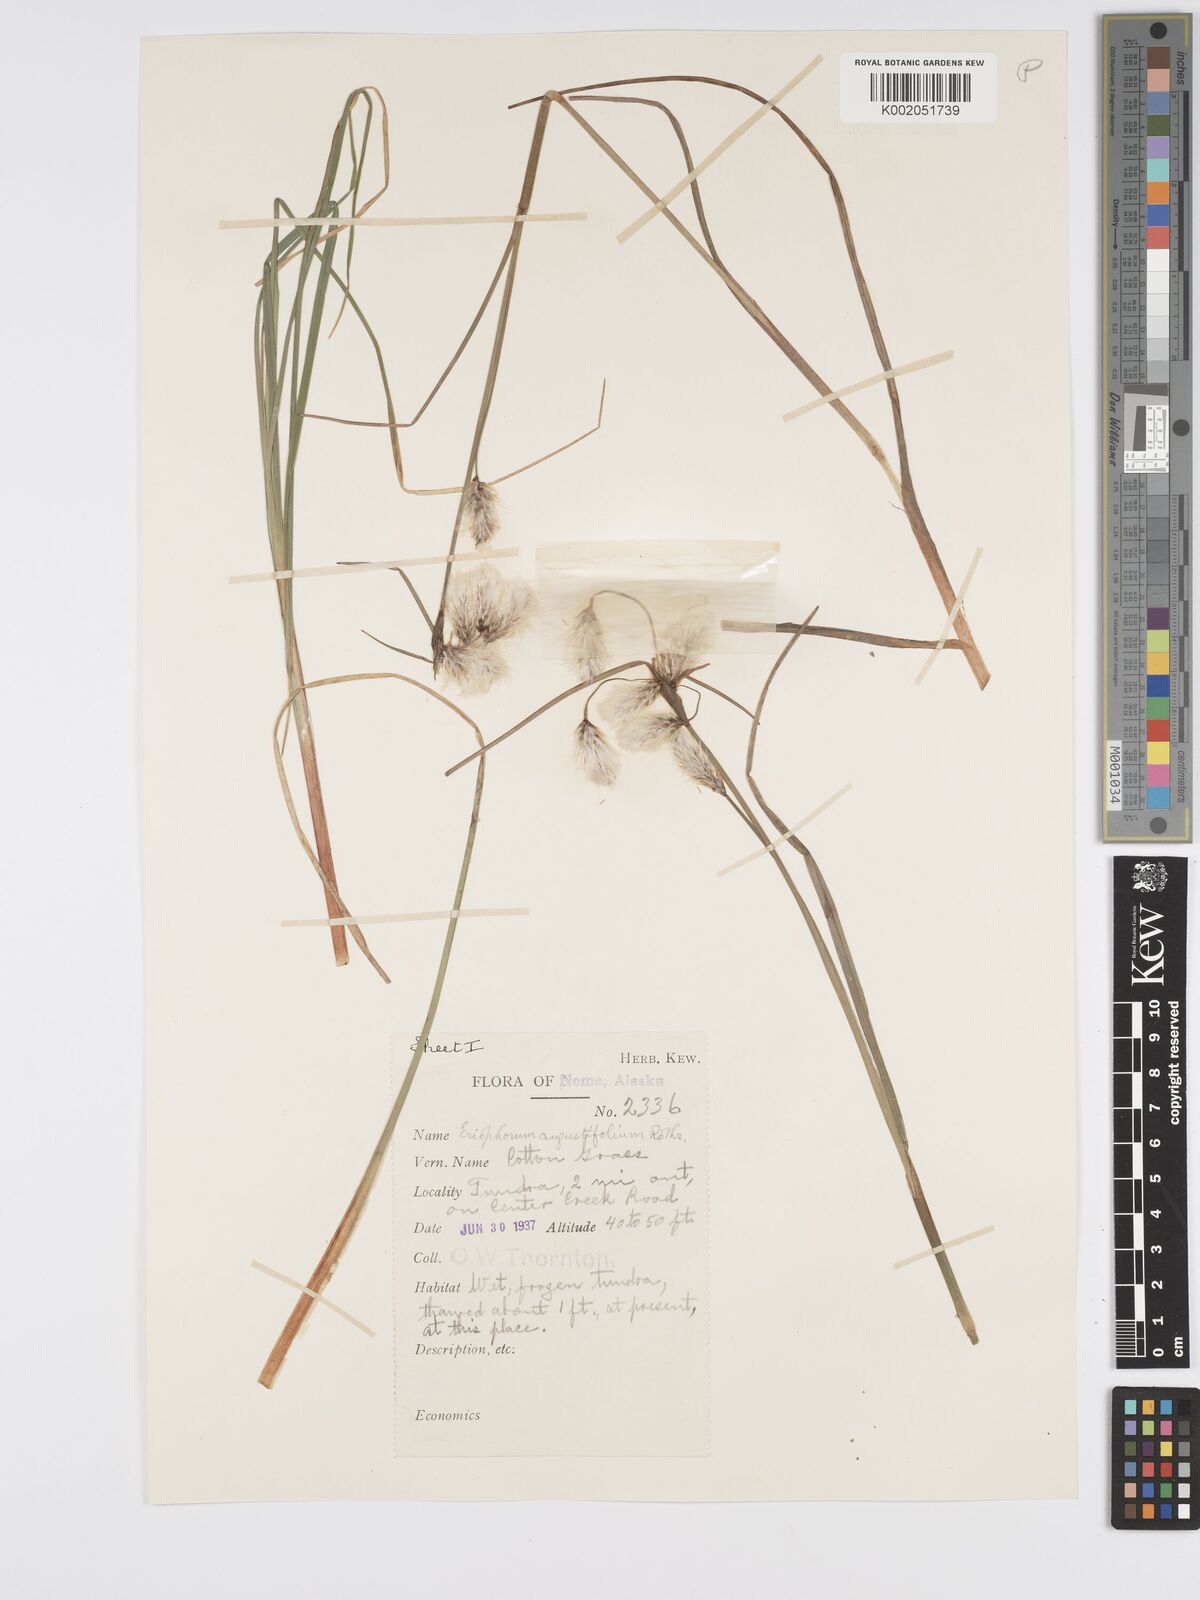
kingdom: Plantae
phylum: Tracheophyta
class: Liliopsida
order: Poales
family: Cyperaceae
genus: Eriophorum
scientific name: Eriophorum angustifolium
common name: Common cottongrass
